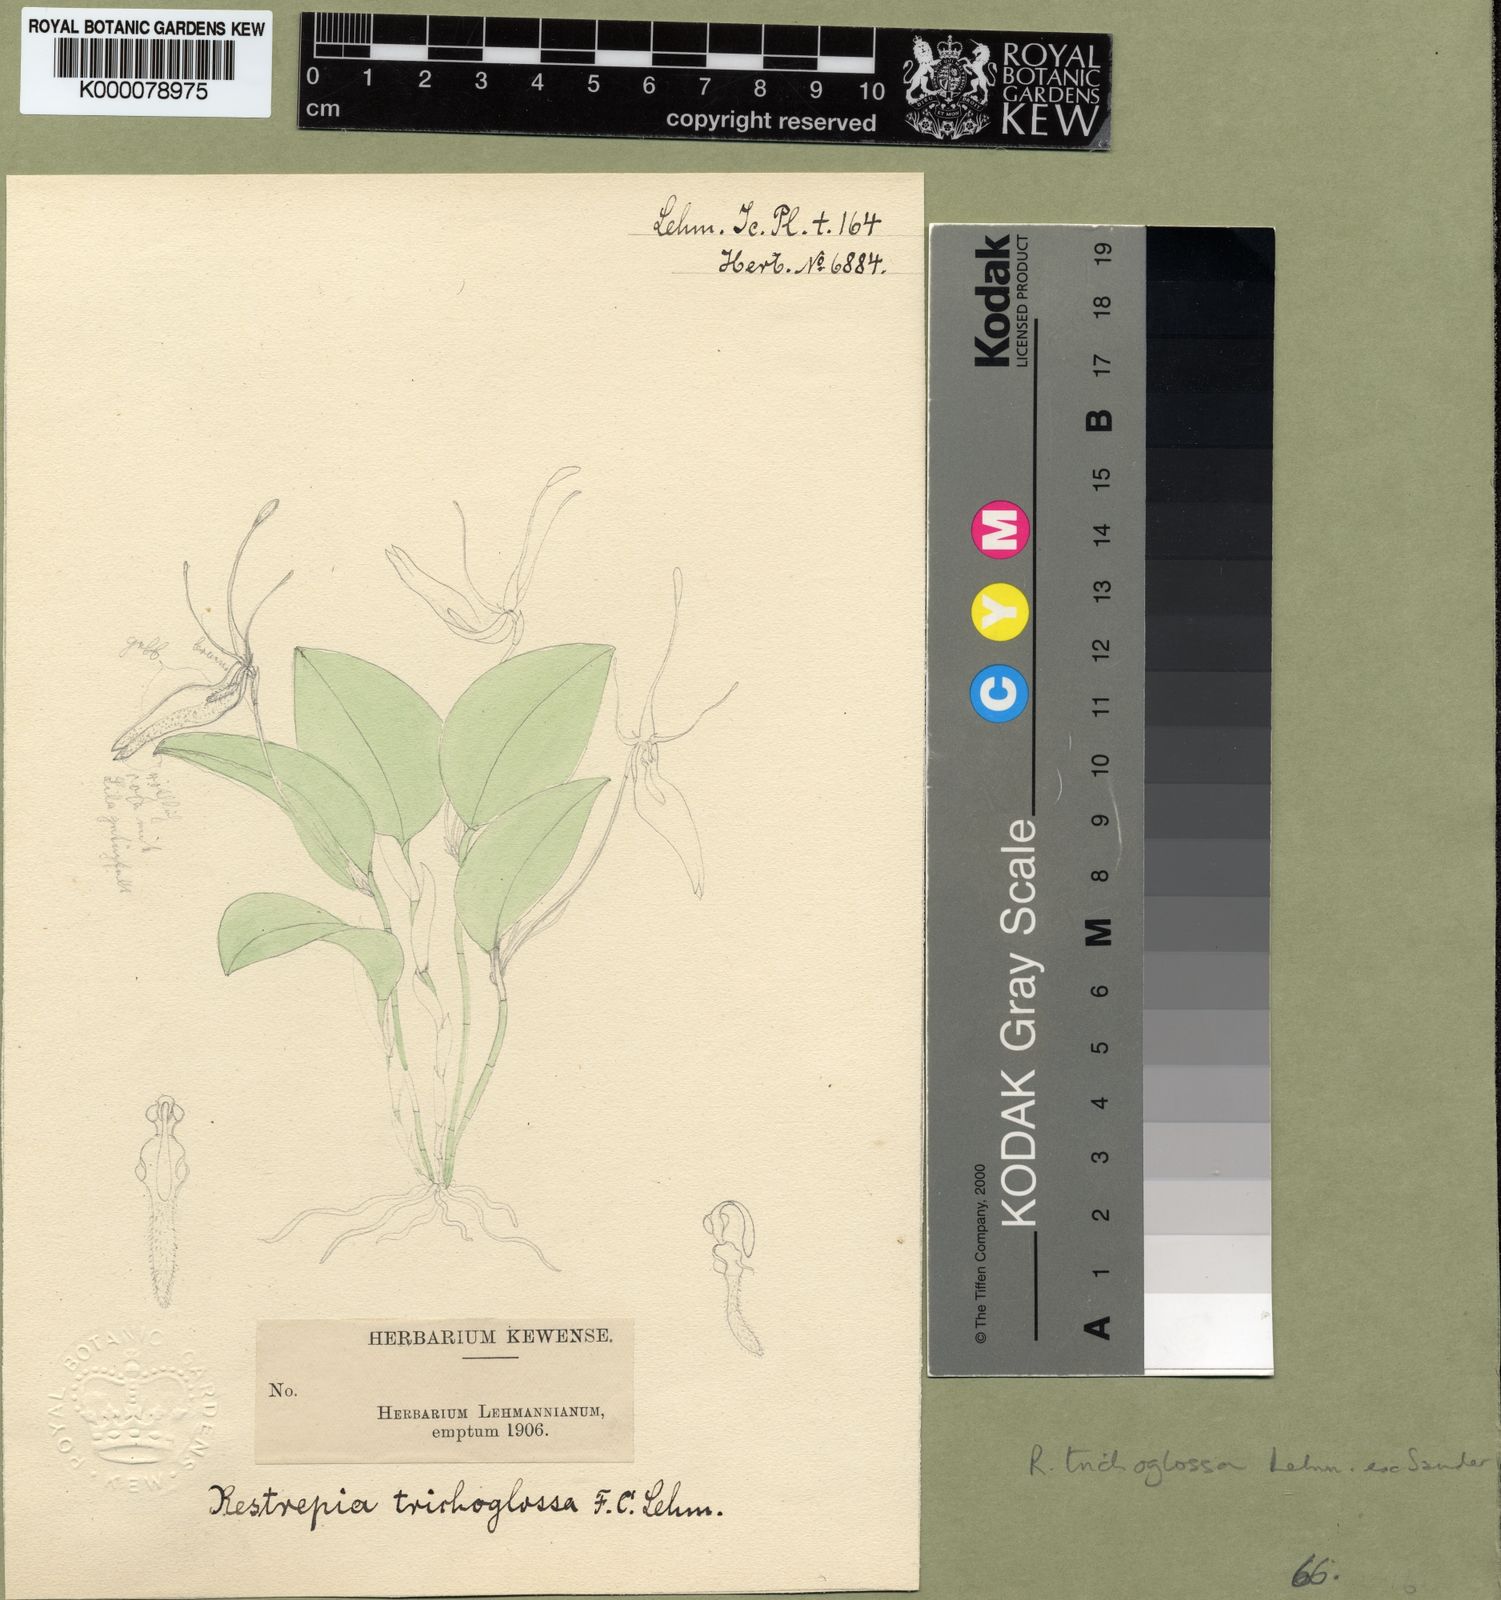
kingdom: Plantae
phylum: Tracheophyta
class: Liliopsida
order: Asparagales
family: Orchidaceae
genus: Restrepia
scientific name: Restrepia trichoglossa
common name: Hairy tongued restrepia
